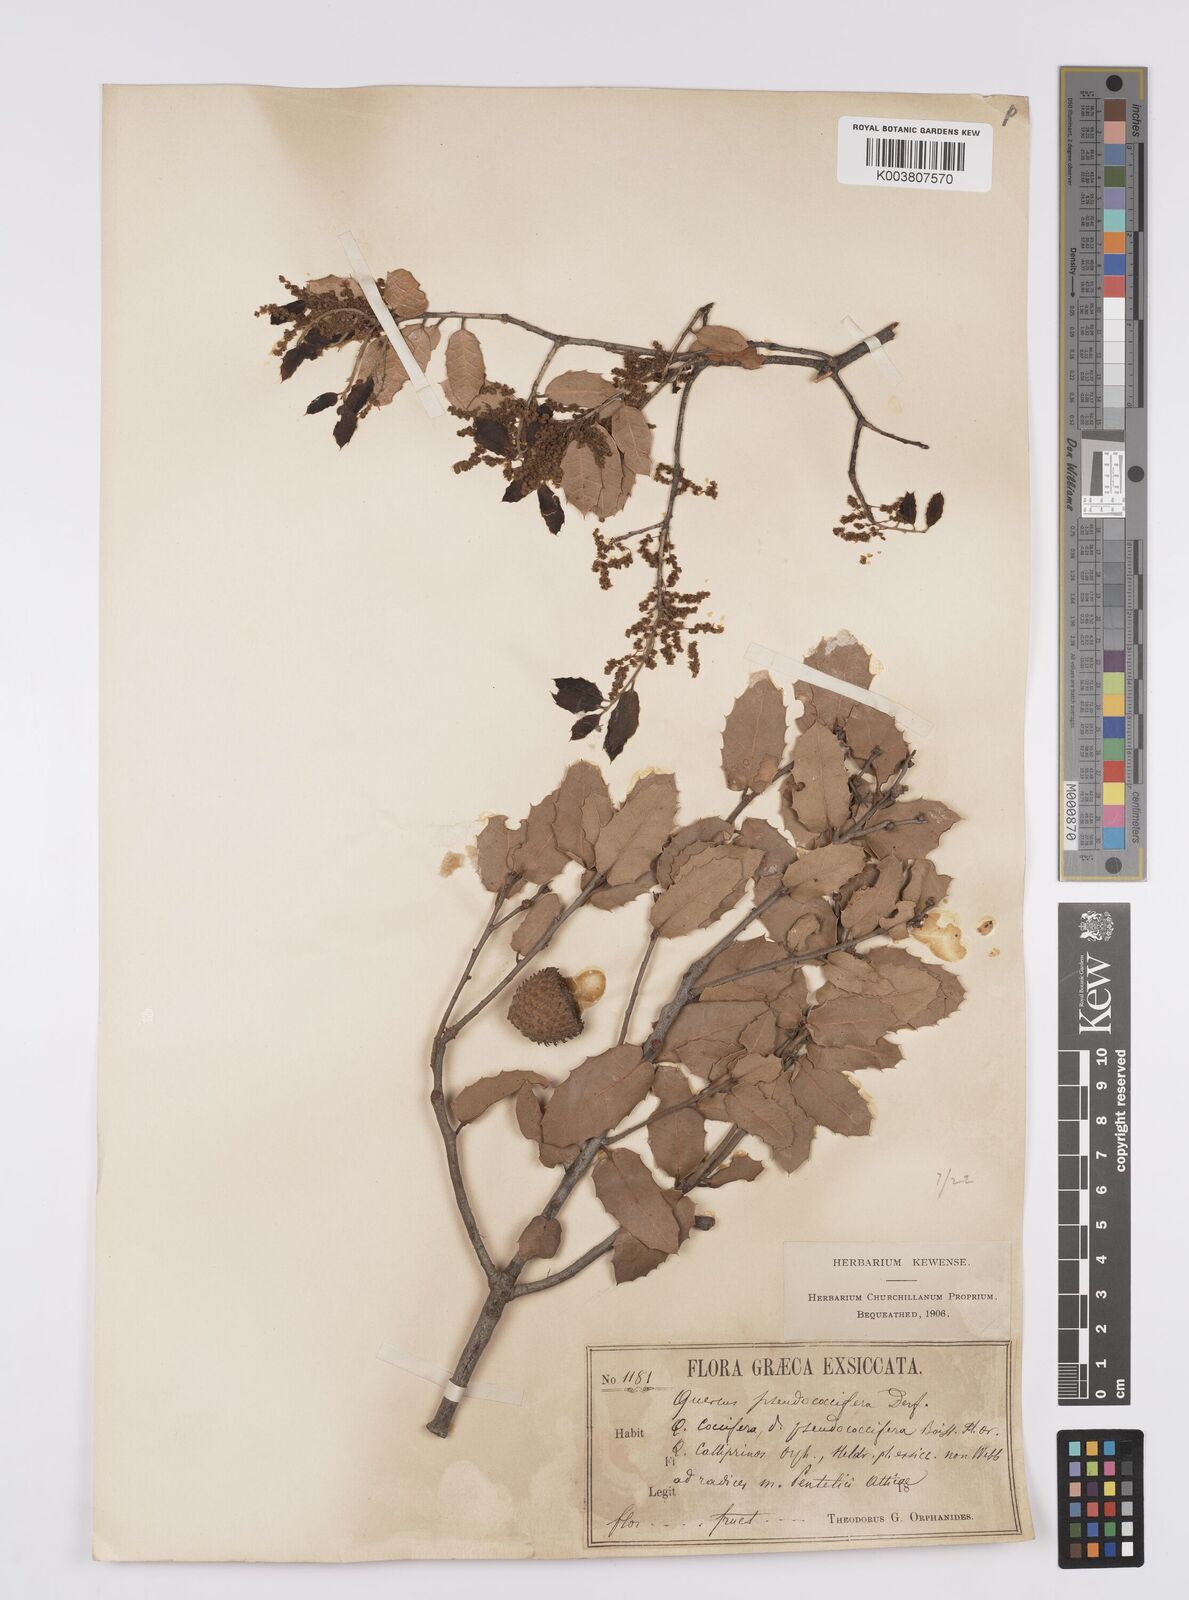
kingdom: Plantae
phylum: Tracheophyta
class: Magnoliopsida
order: Fagales
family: Fagaceae
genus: Quercus
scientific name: Quercus coccifera
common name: Kermes oak
